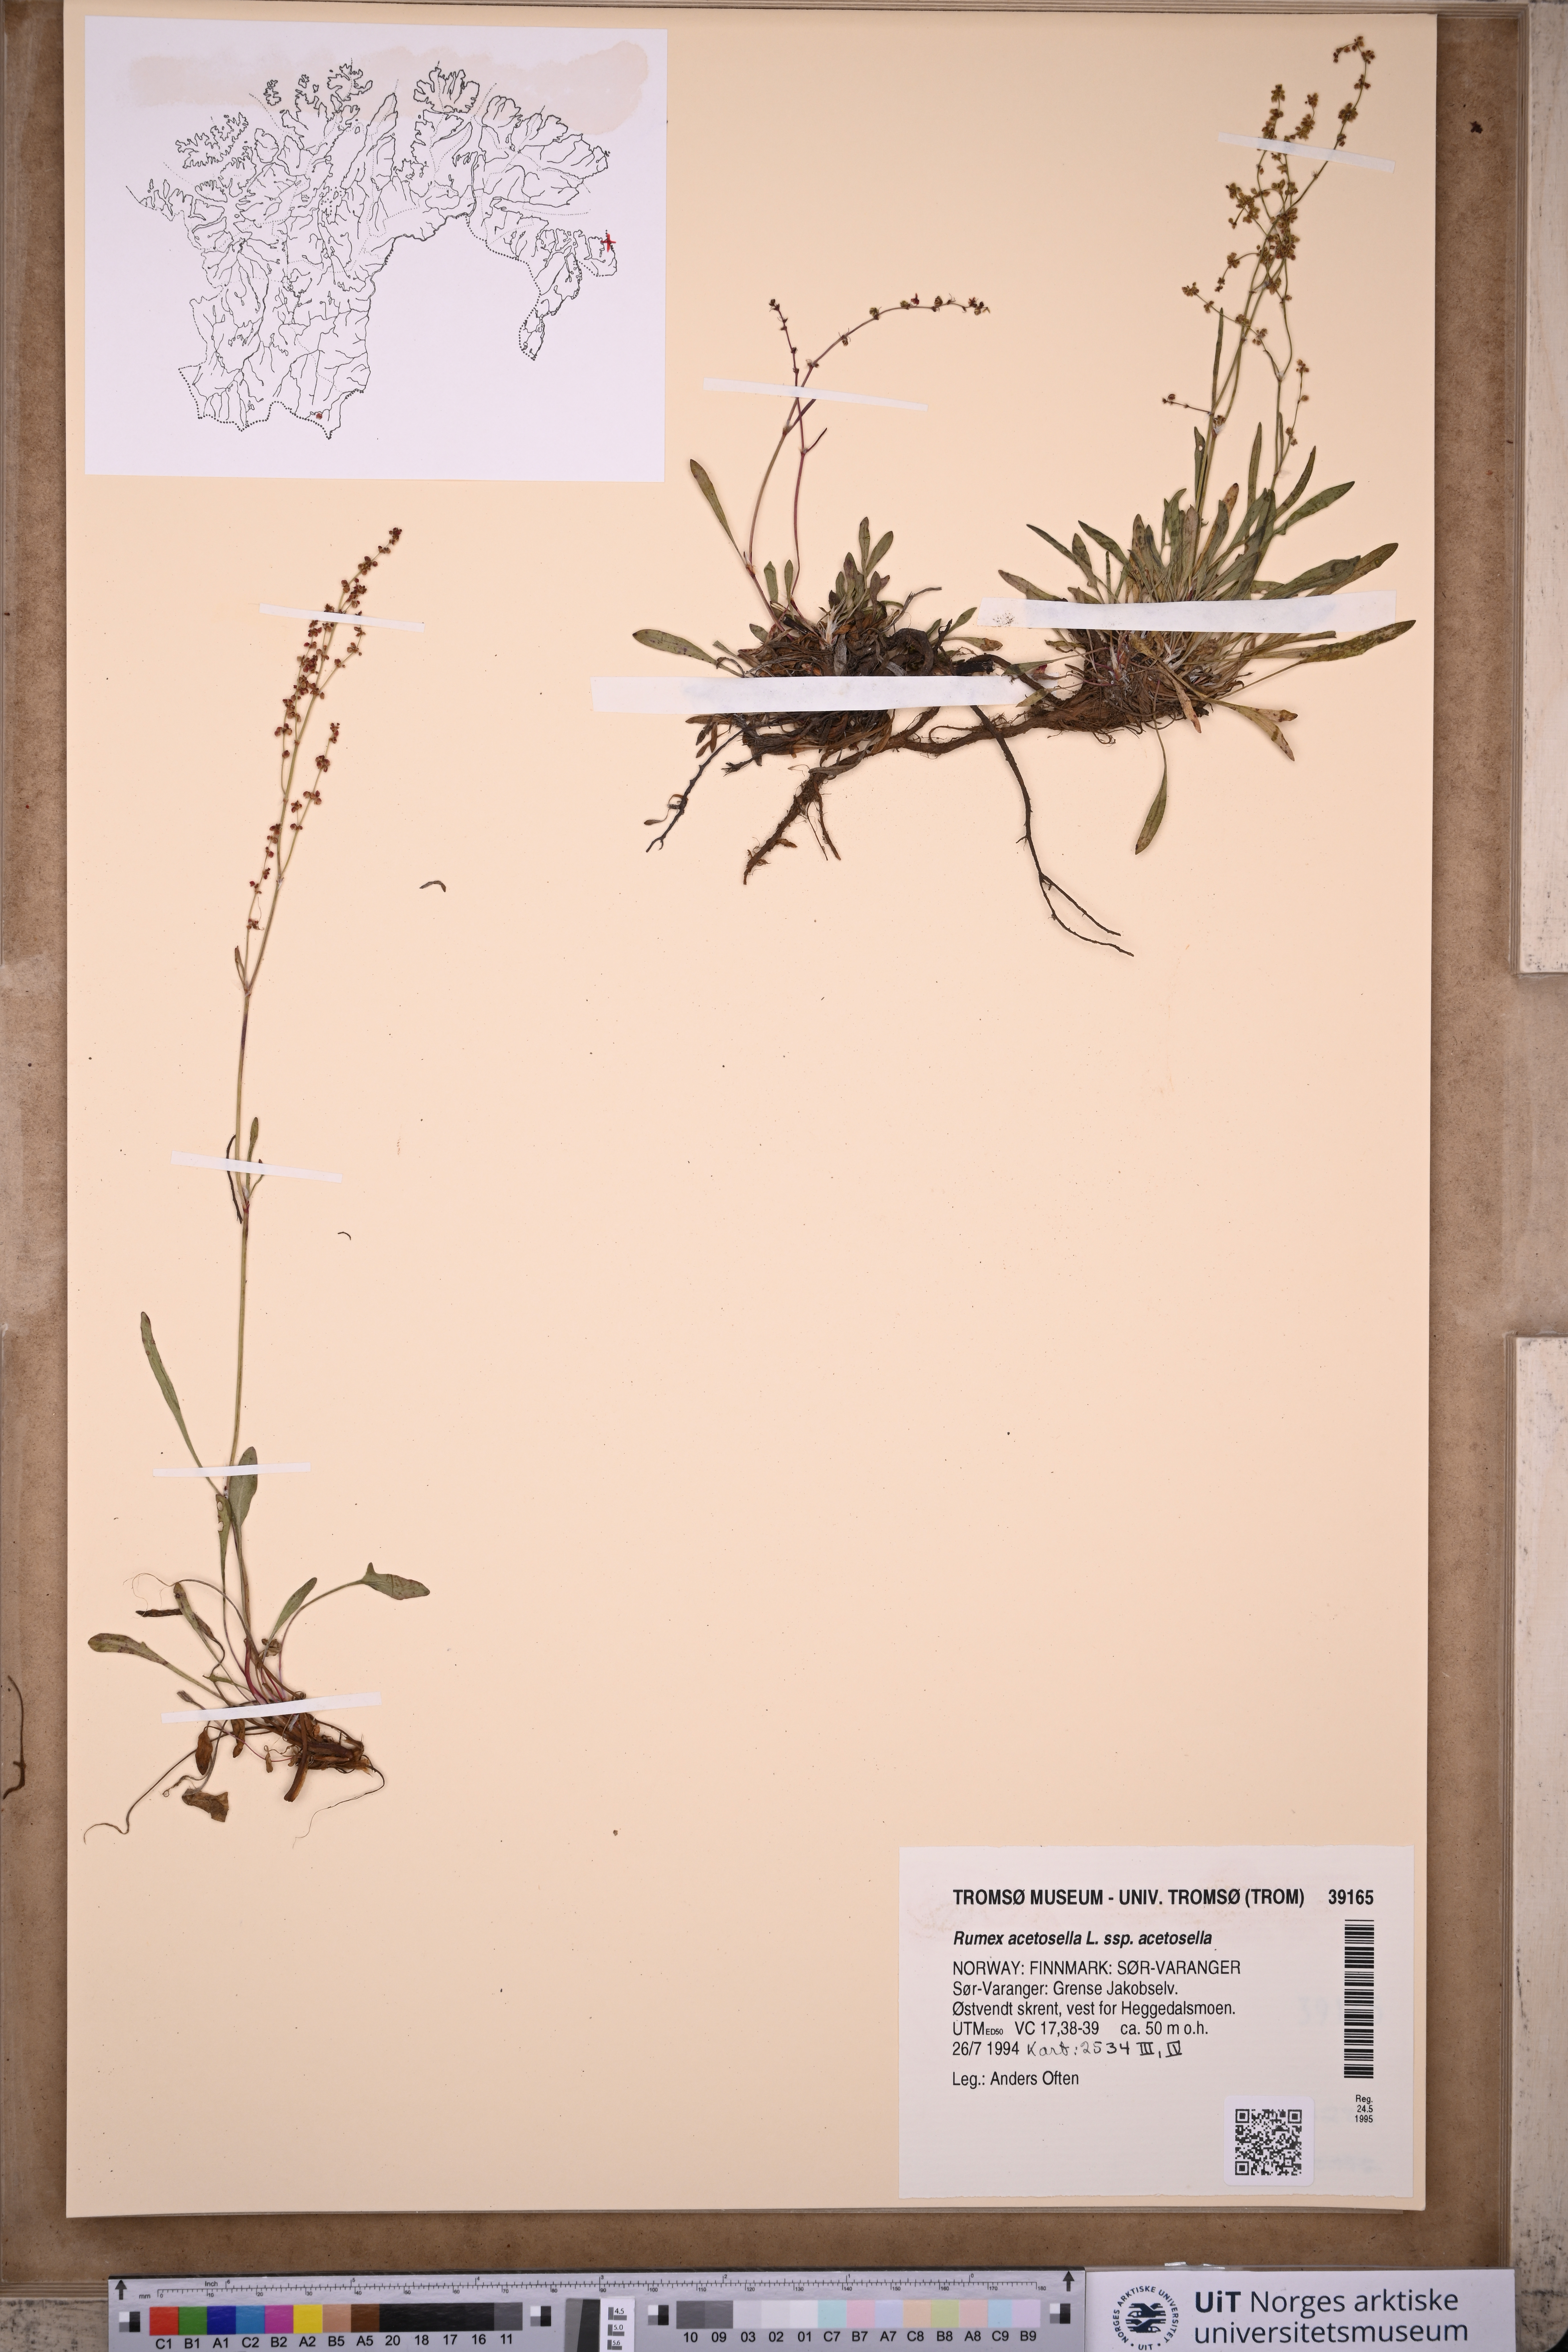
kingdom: Plantae
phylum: Tracheophyta
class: Magnoliopsida
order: Caryophyllales
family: Polygonaceae
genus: Rumex
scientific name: Rumex acetosella
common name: Common sheep sorrel
